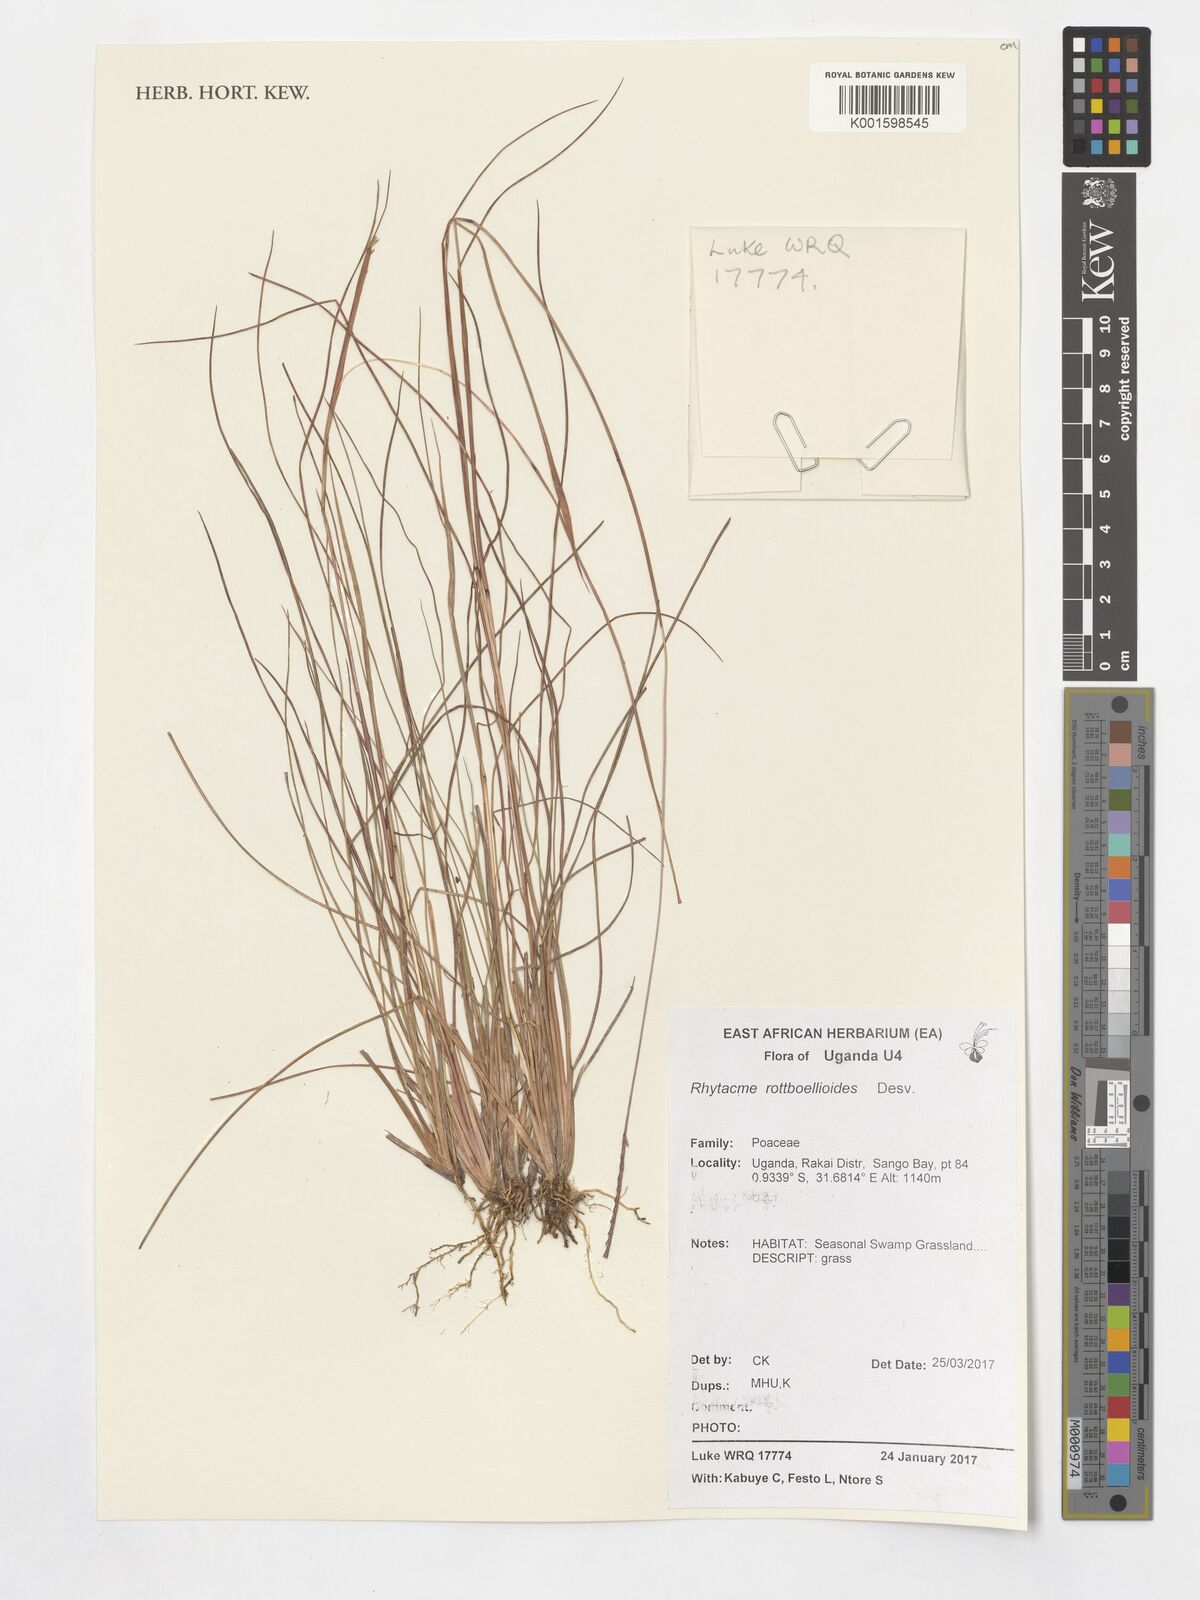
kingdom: Plantae
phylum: Tracheophyta
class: Liliopsida
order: Poales
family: Poaceae
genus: Rhytachne
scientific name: Rhytachne rottboellioides
